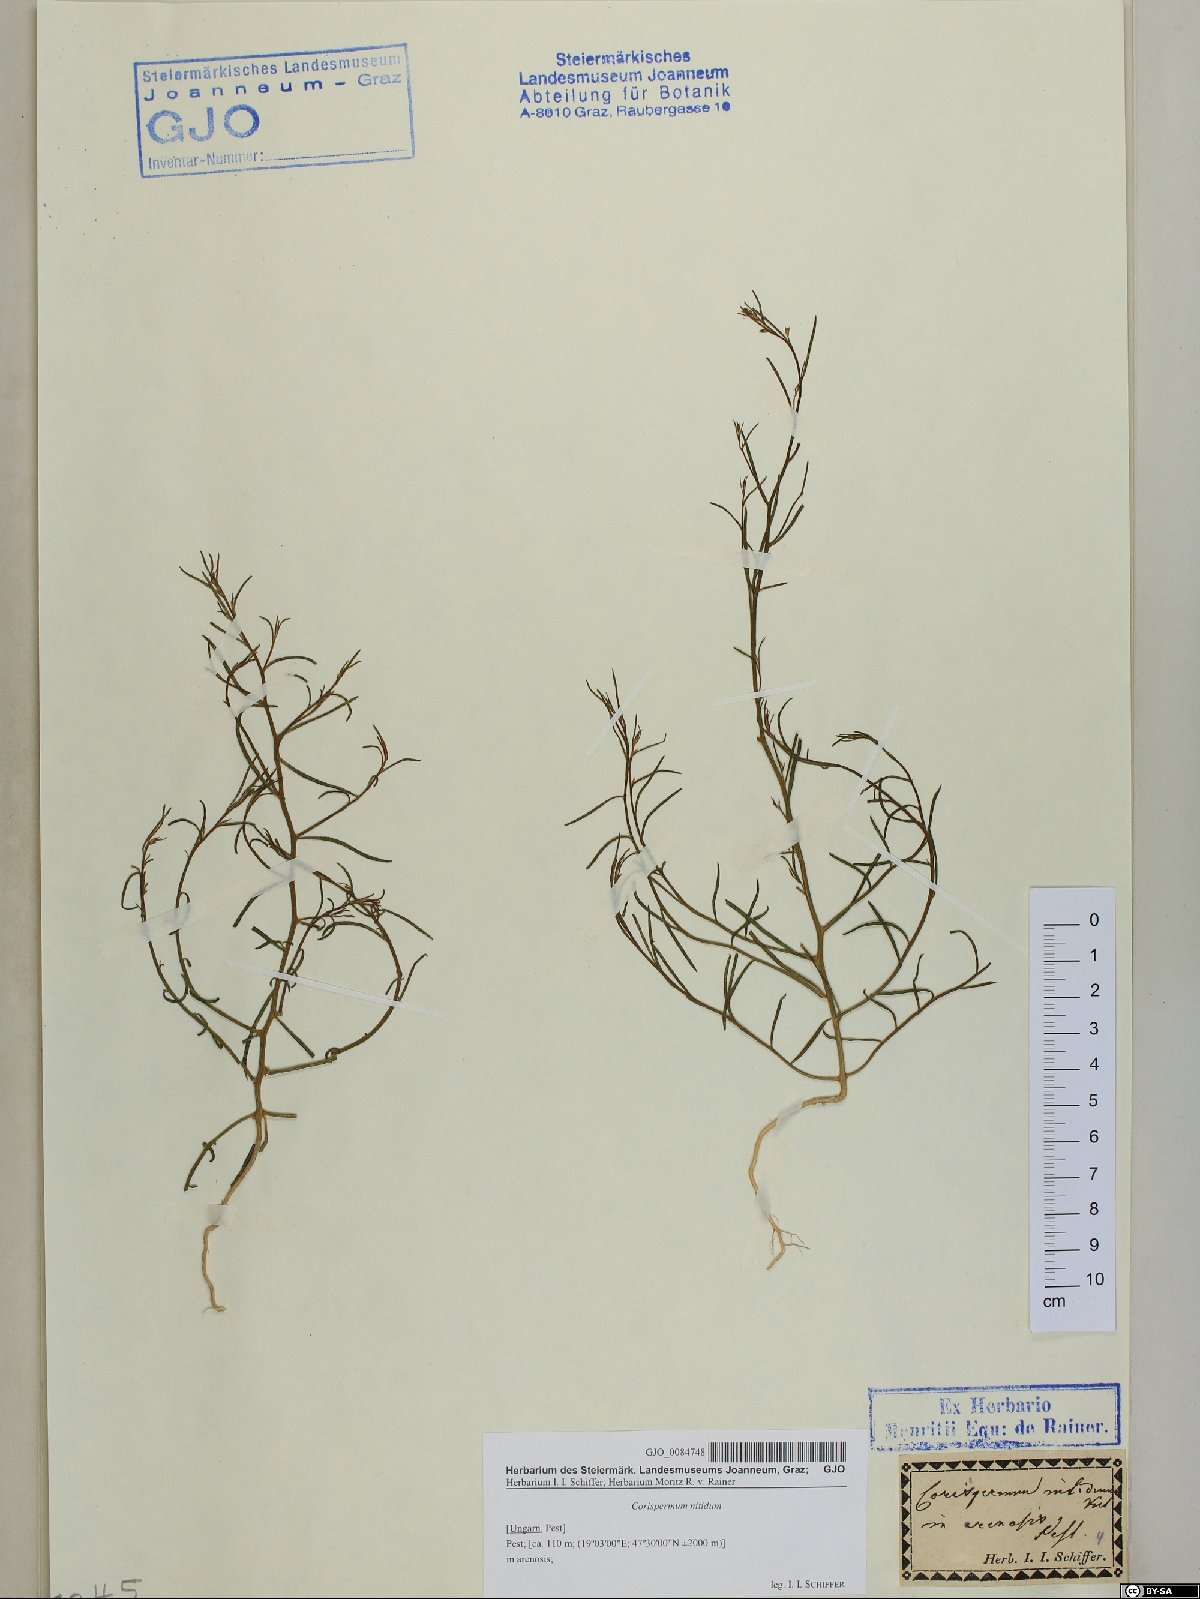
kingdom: Plantae
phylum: Tracheophyta
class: Magnoliopsida
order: Caryophyllales
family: Amaranthaceae
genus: Corispermum
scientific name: Corispermum nitidum
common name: Bugseed
